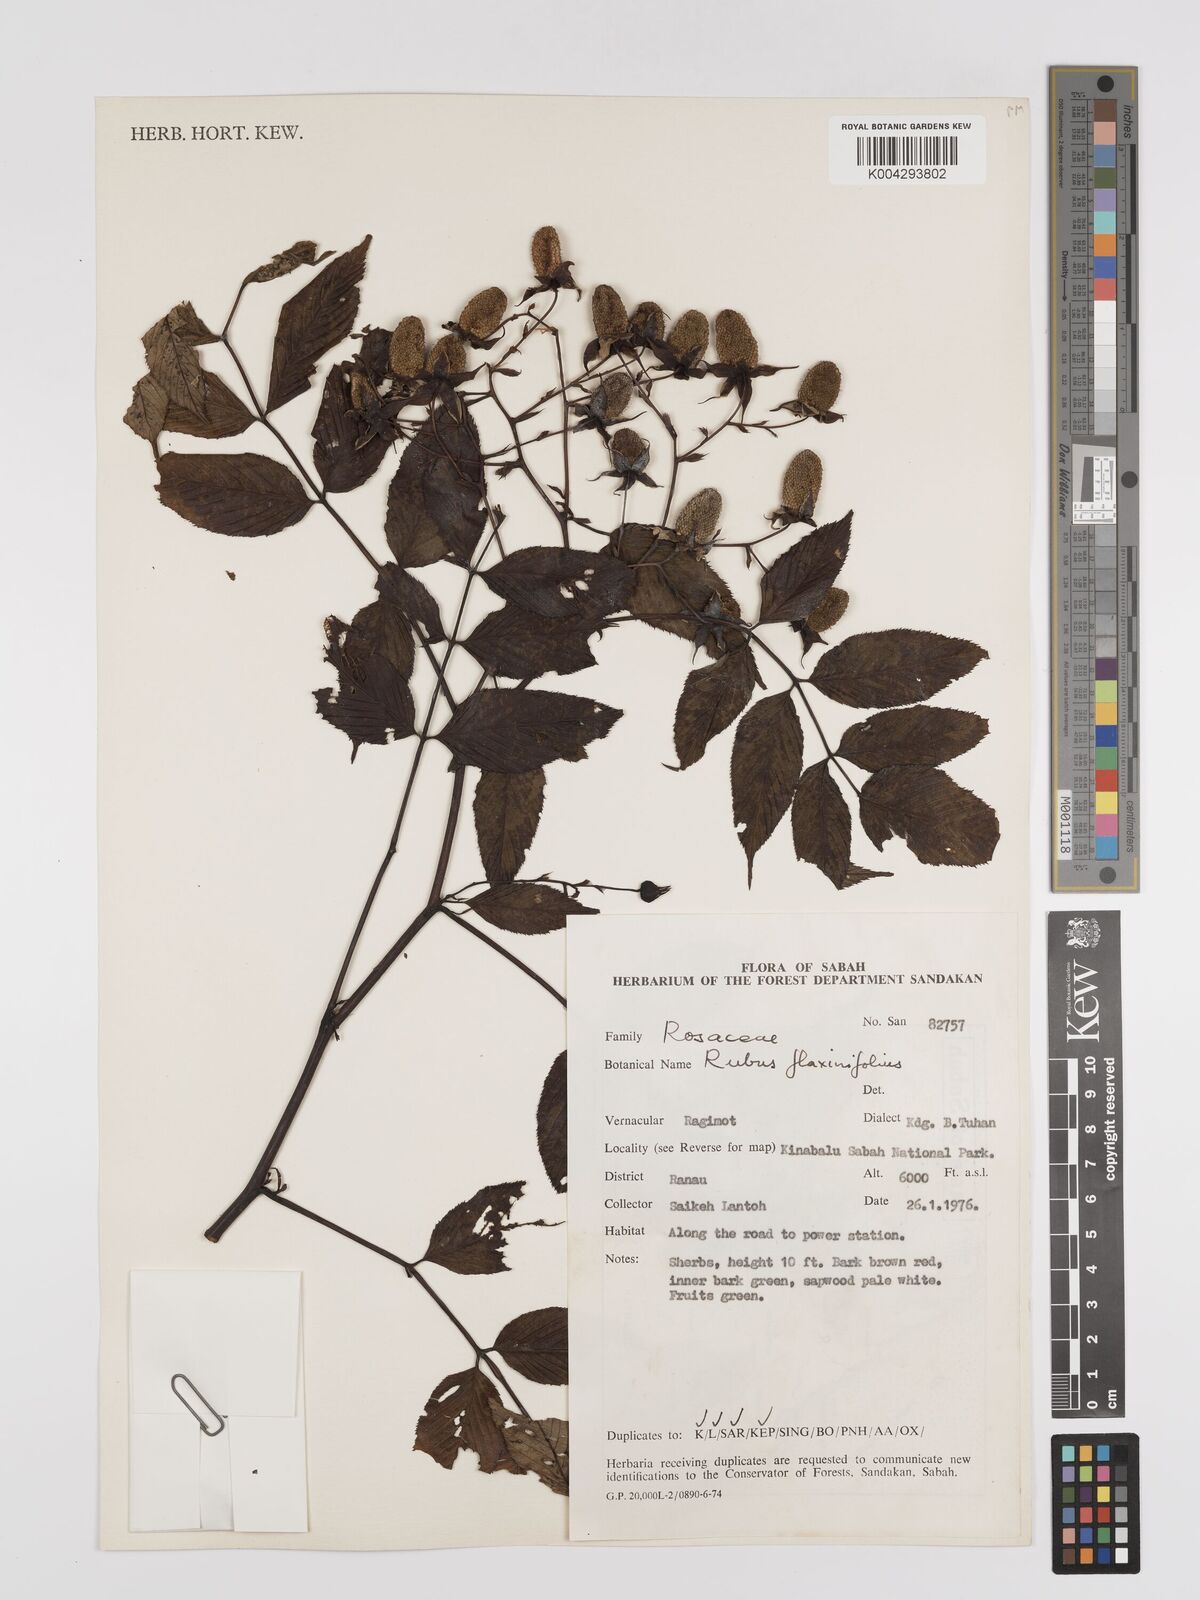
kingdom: Plantae
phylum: Tracheophyta
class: Magnoliopsida
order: Rosales
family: Rosaceae
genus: Rubus
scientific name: Rubus fraxinifolius
